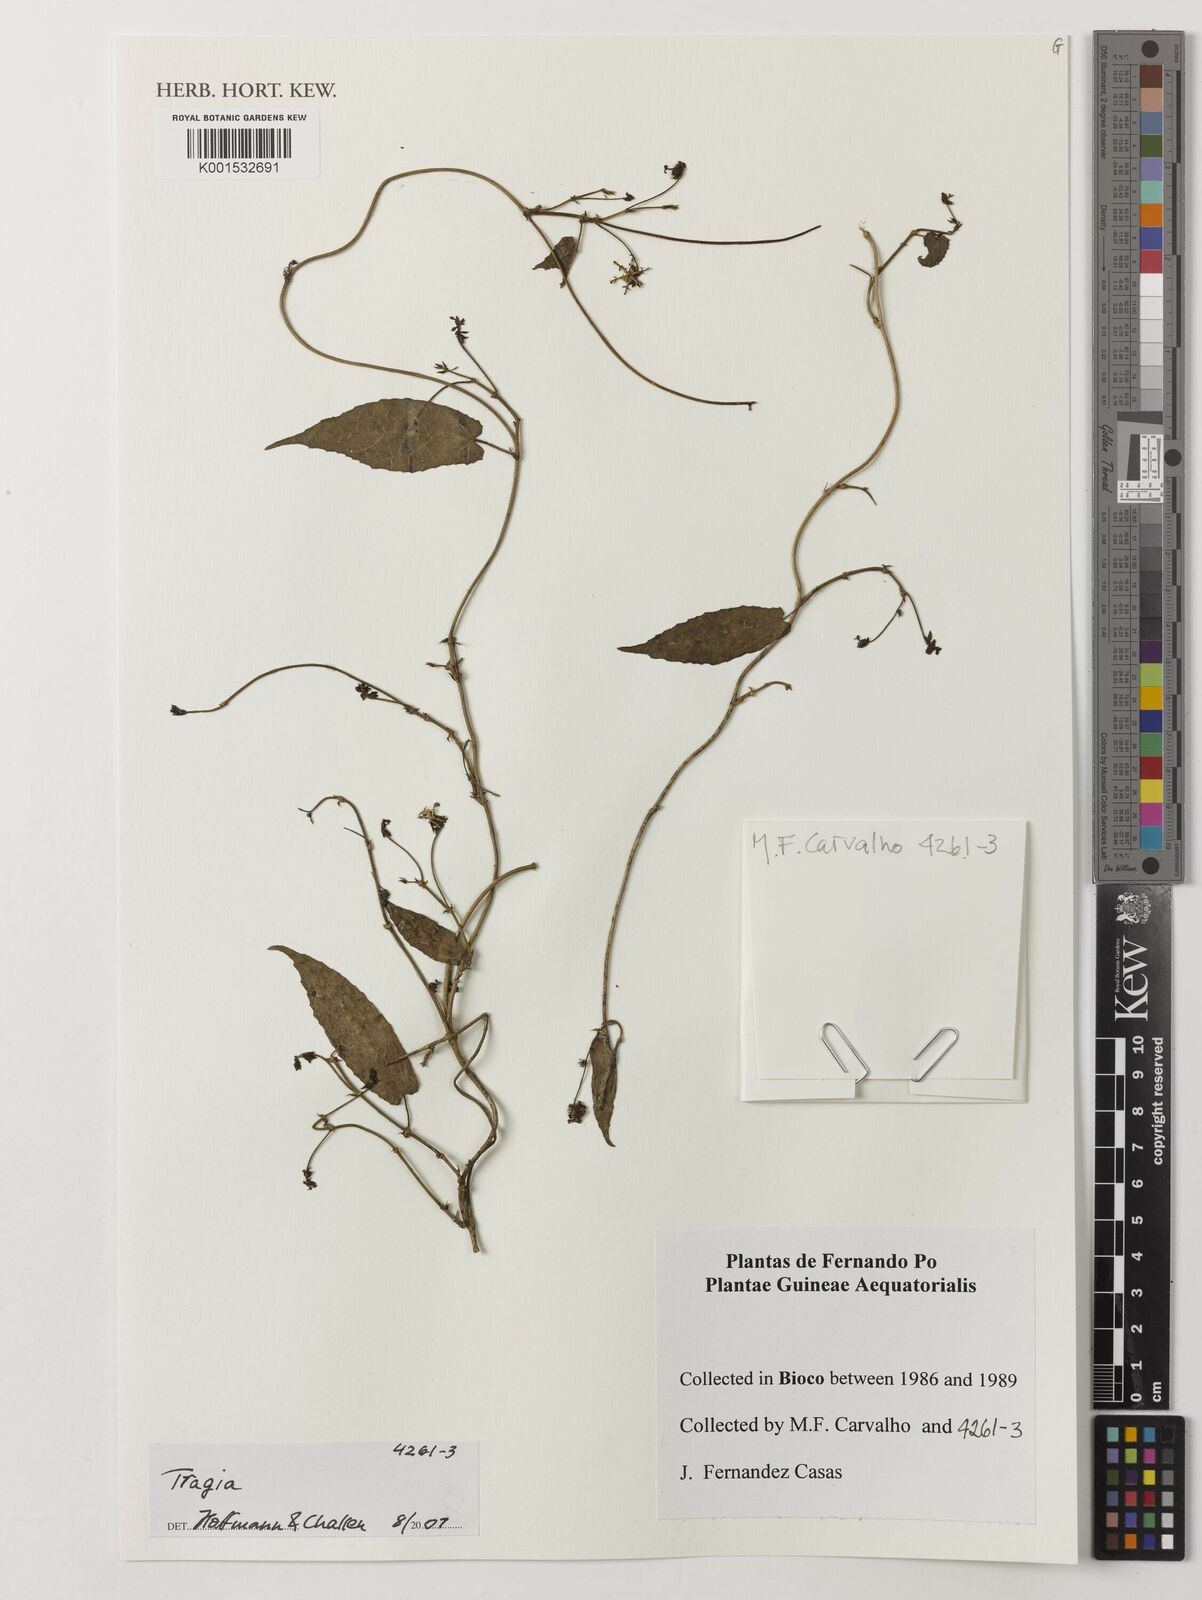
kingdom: Plantae
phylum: Tracheophyta
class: Magnoliopsida
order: Malpighiales
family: Euphorbiaceae
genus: Tragia
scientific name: Tragia
